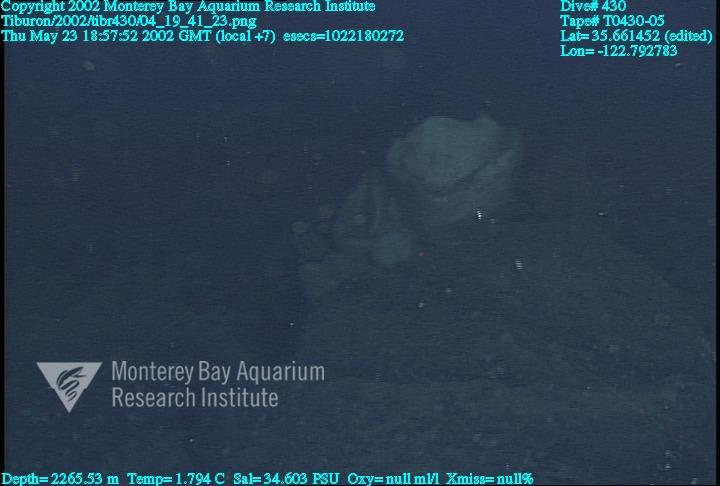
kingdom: Animalia
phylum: Porifera
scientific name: Porifera
